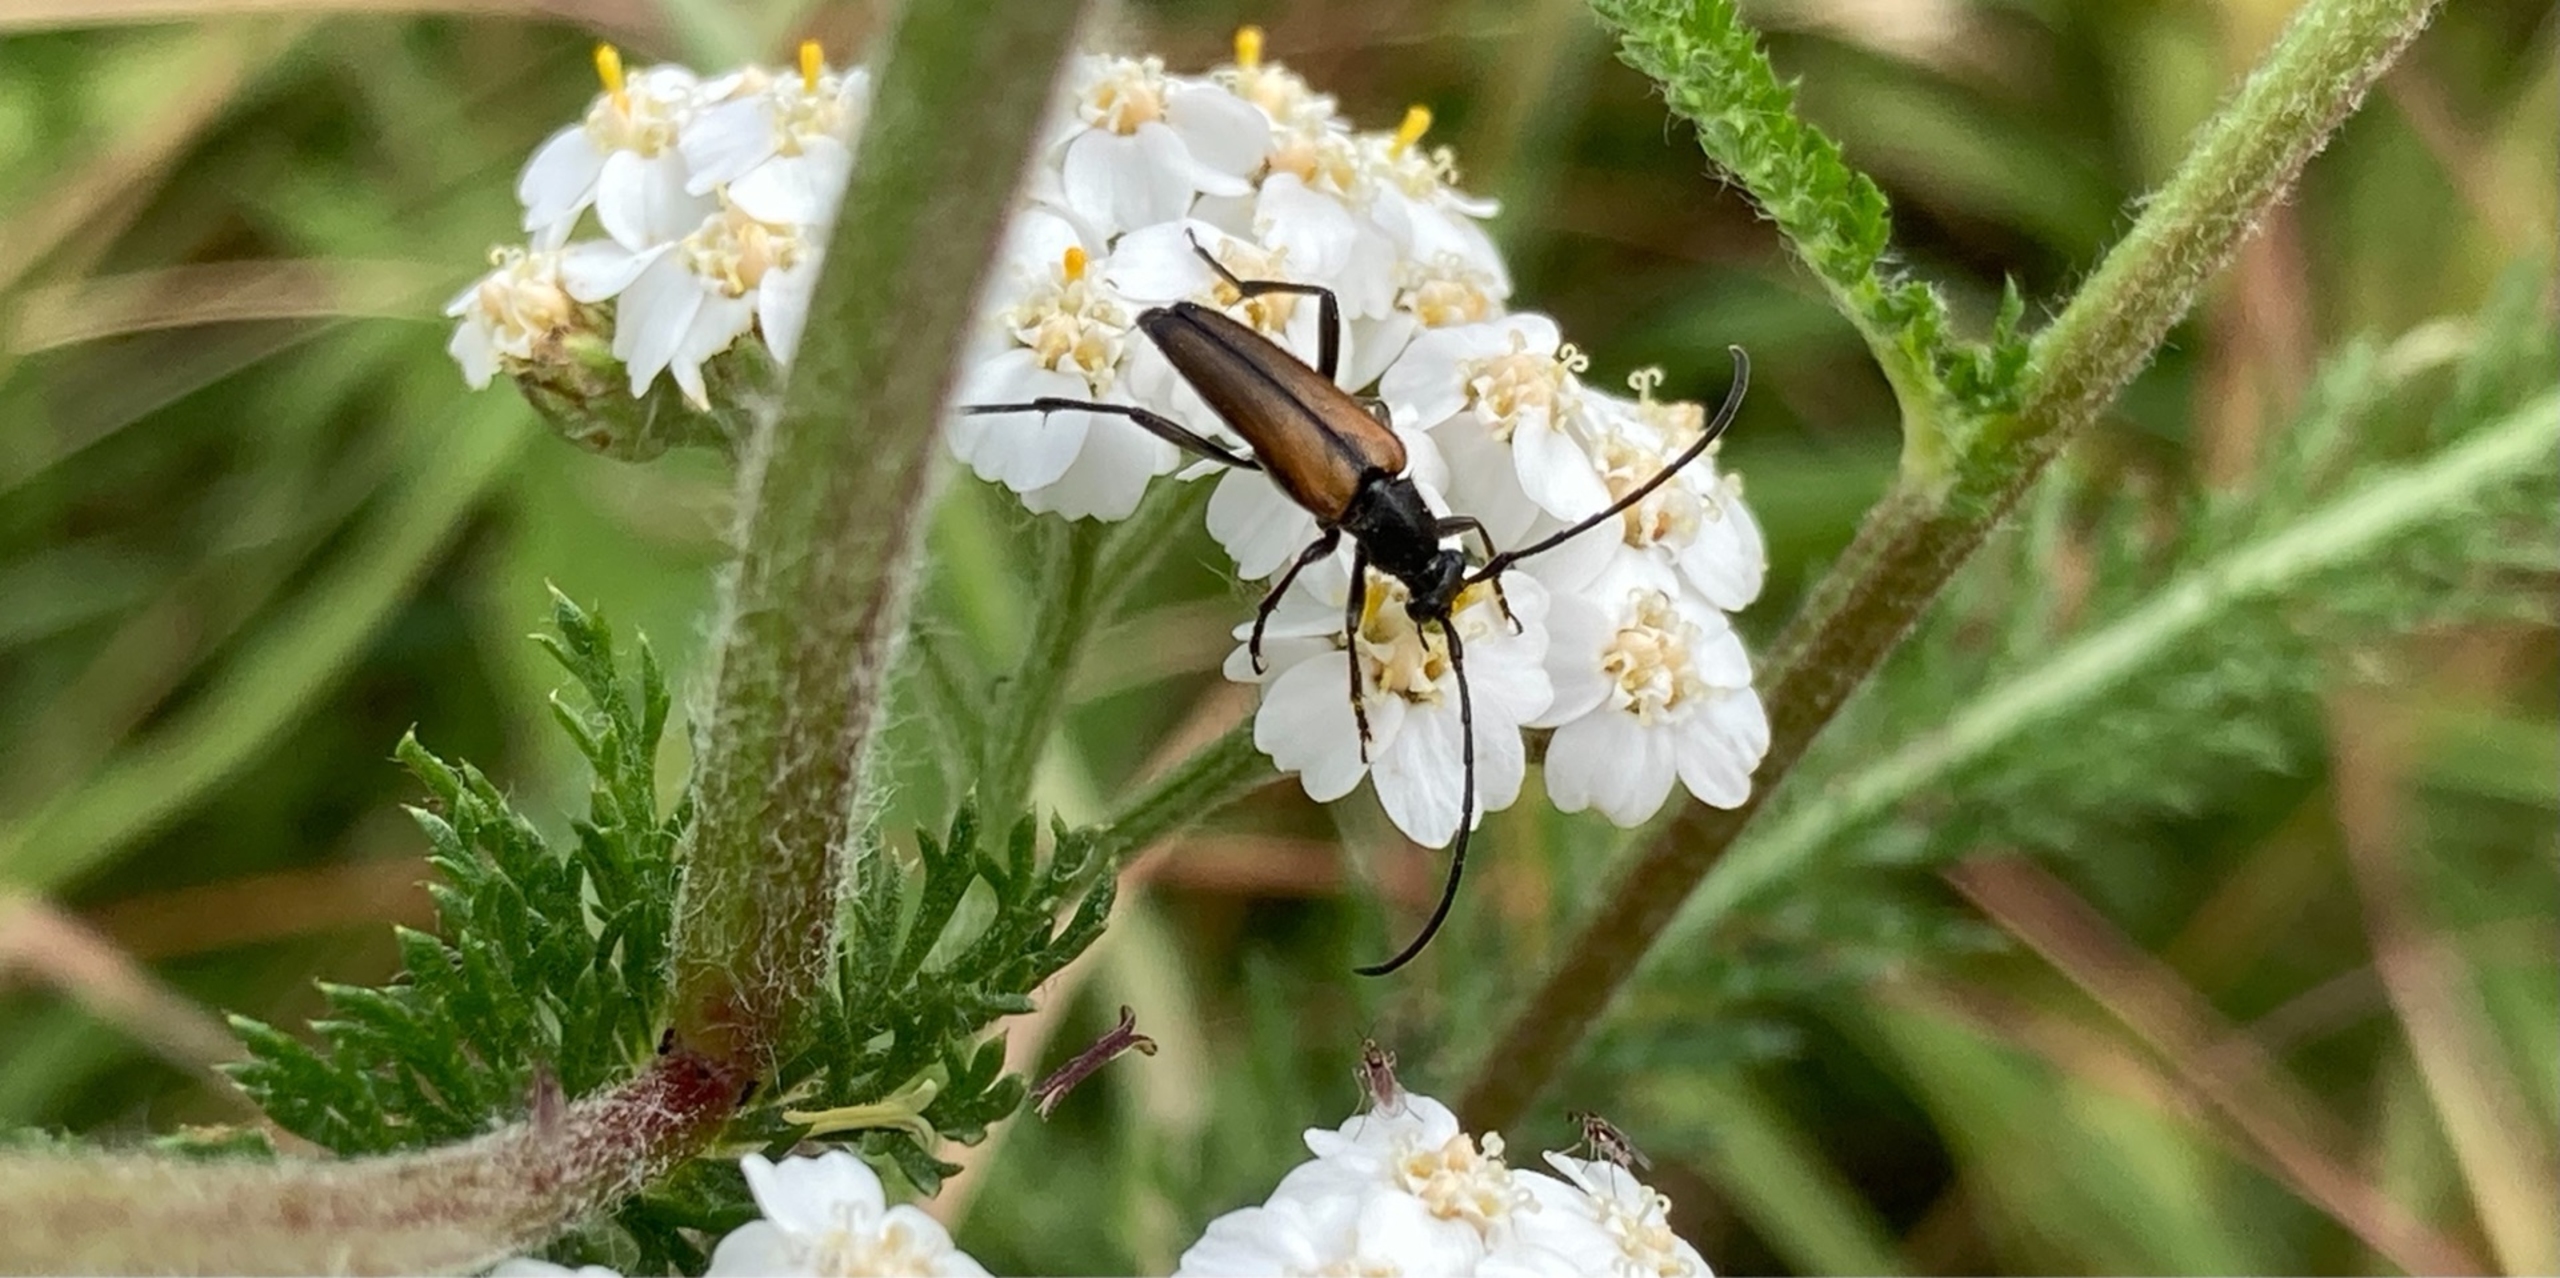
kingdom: Animalia
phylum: Arthropoda
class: Insecta
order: Coleoptera
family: Cerambycidae
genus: Stenurella
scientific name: Stenurella melanura
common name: Sortsømmet blomsterbuk
